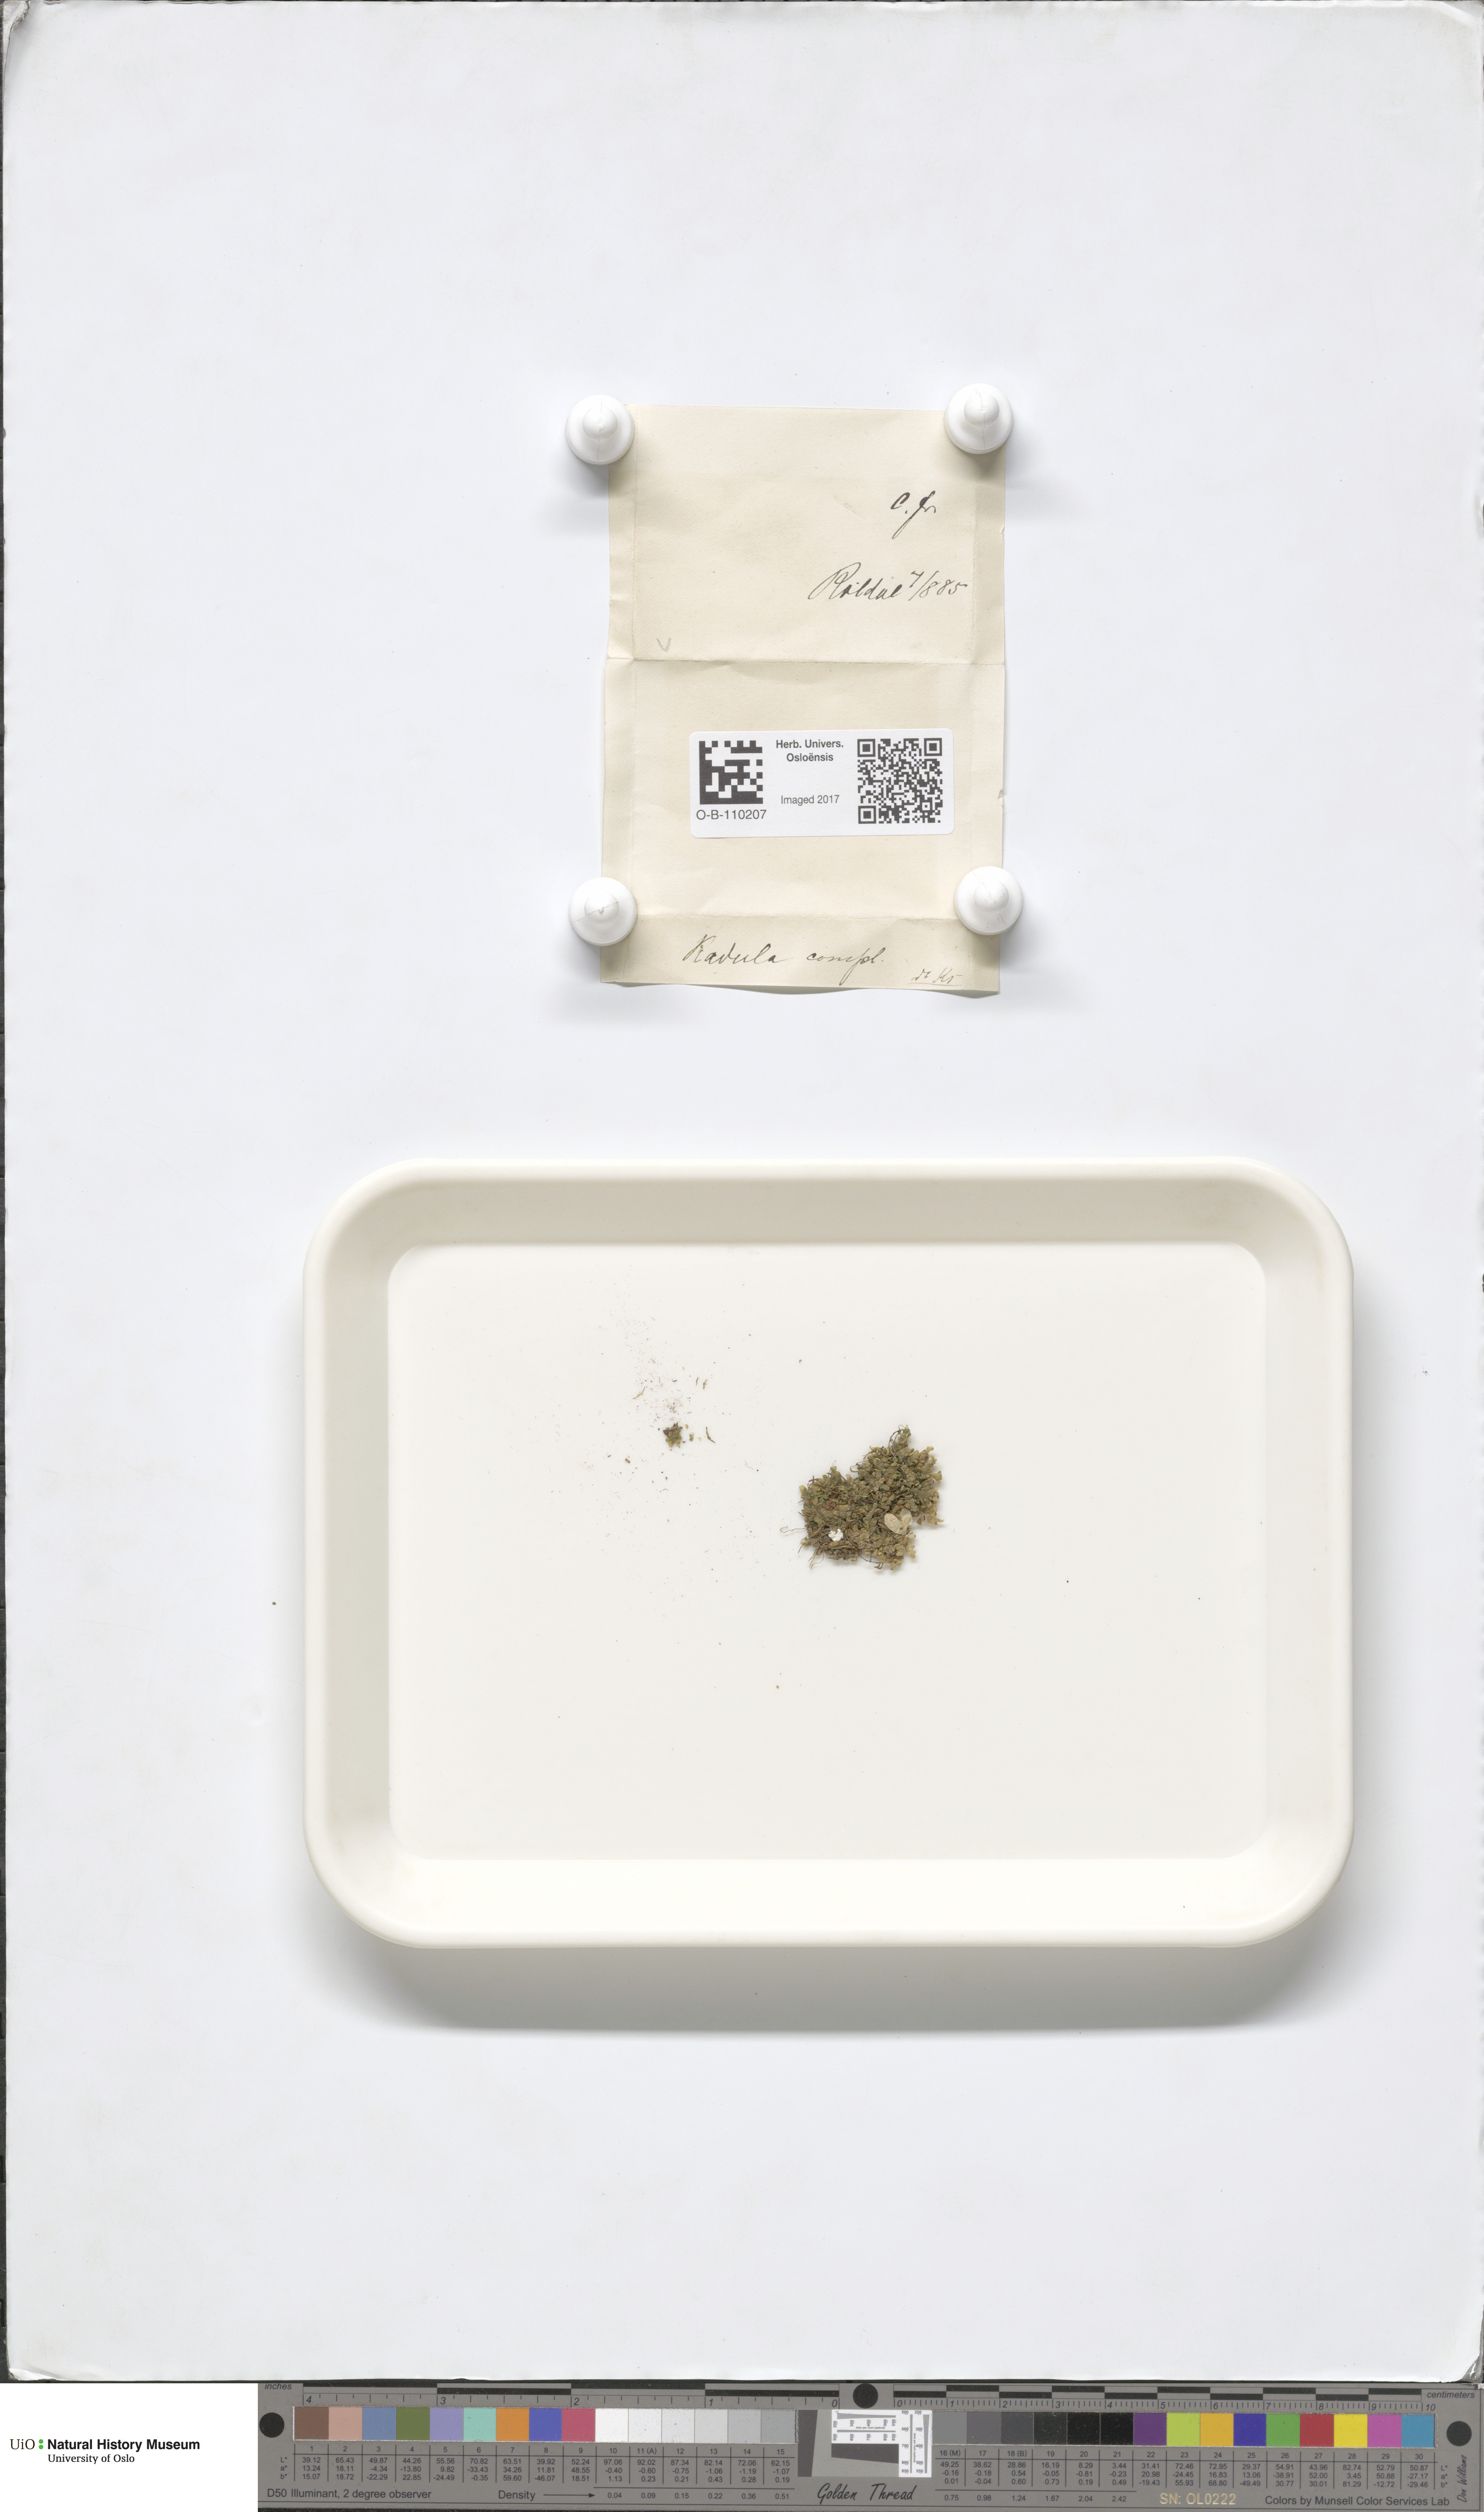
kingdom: Plantae
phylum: Marchantiophyta
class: Jungermanniopsida
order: Porellales
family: Radulaceae
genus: Radula
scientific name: Radula complanata
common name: Flat-leaved scalewort
